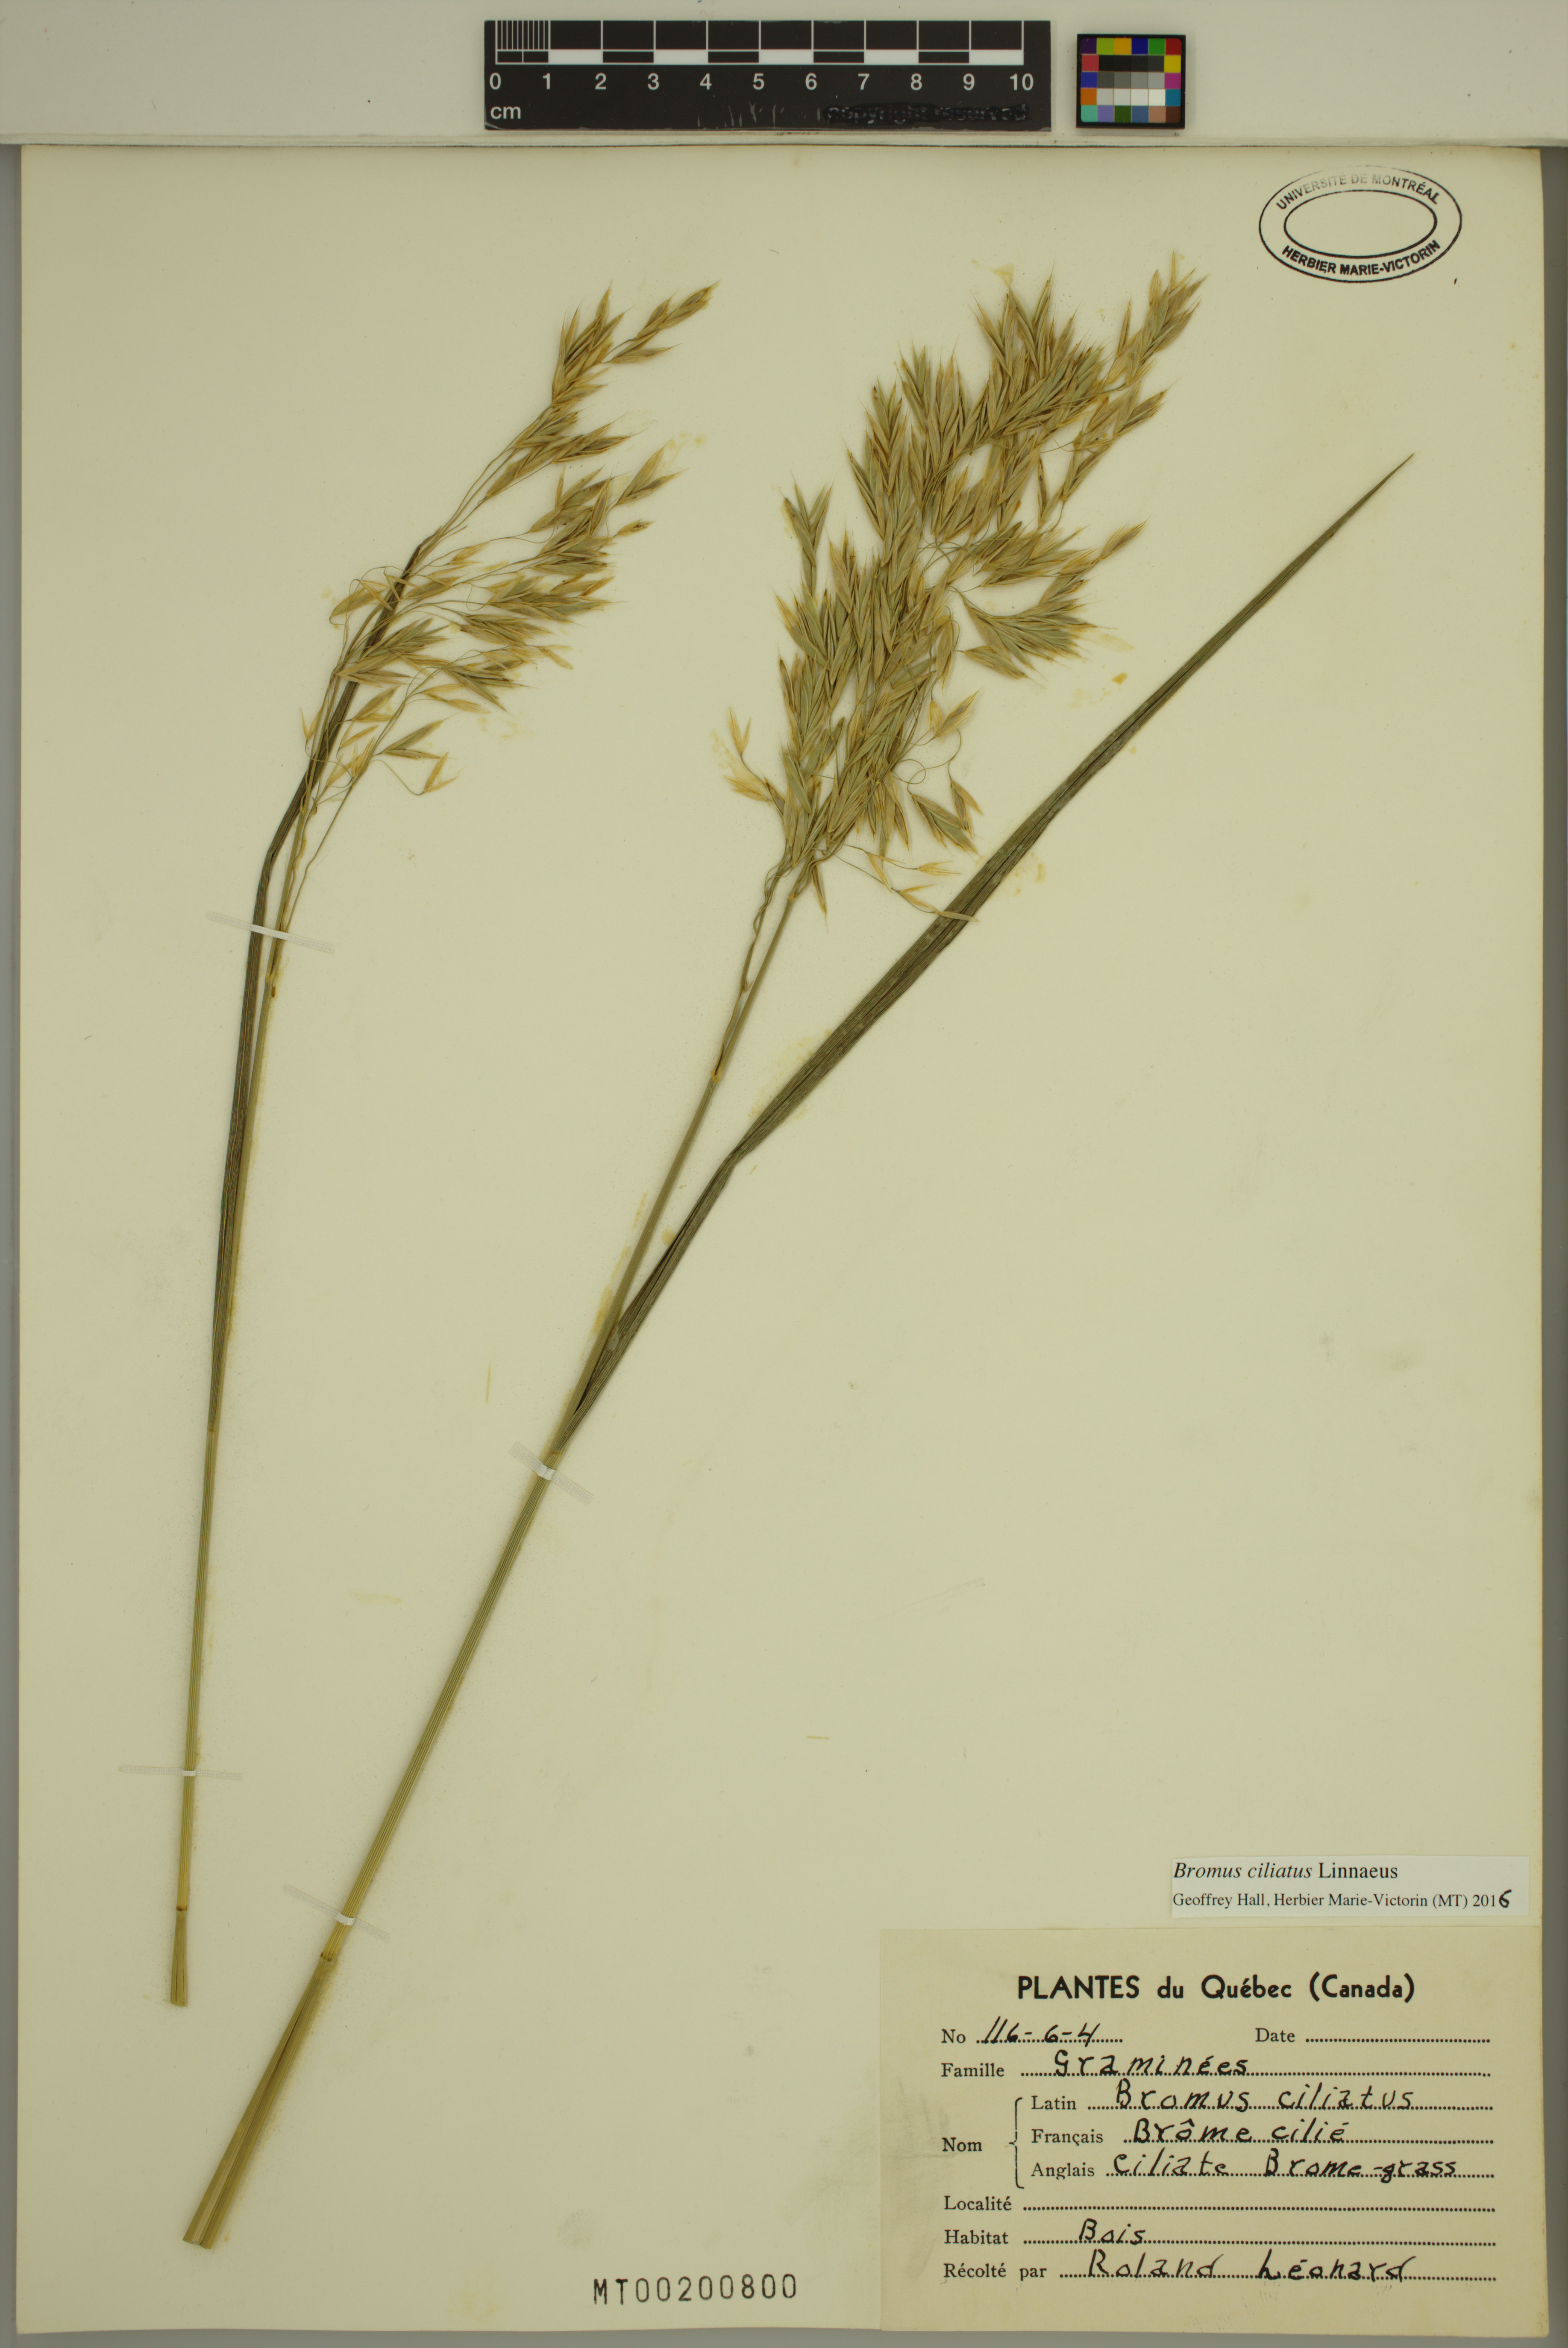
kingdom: Plantae
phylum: Tracheophyta
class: Liliopsida
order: Poales
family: Poaceae
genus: Bromus
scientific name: Bromus ciliatus
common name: Fringe brome
